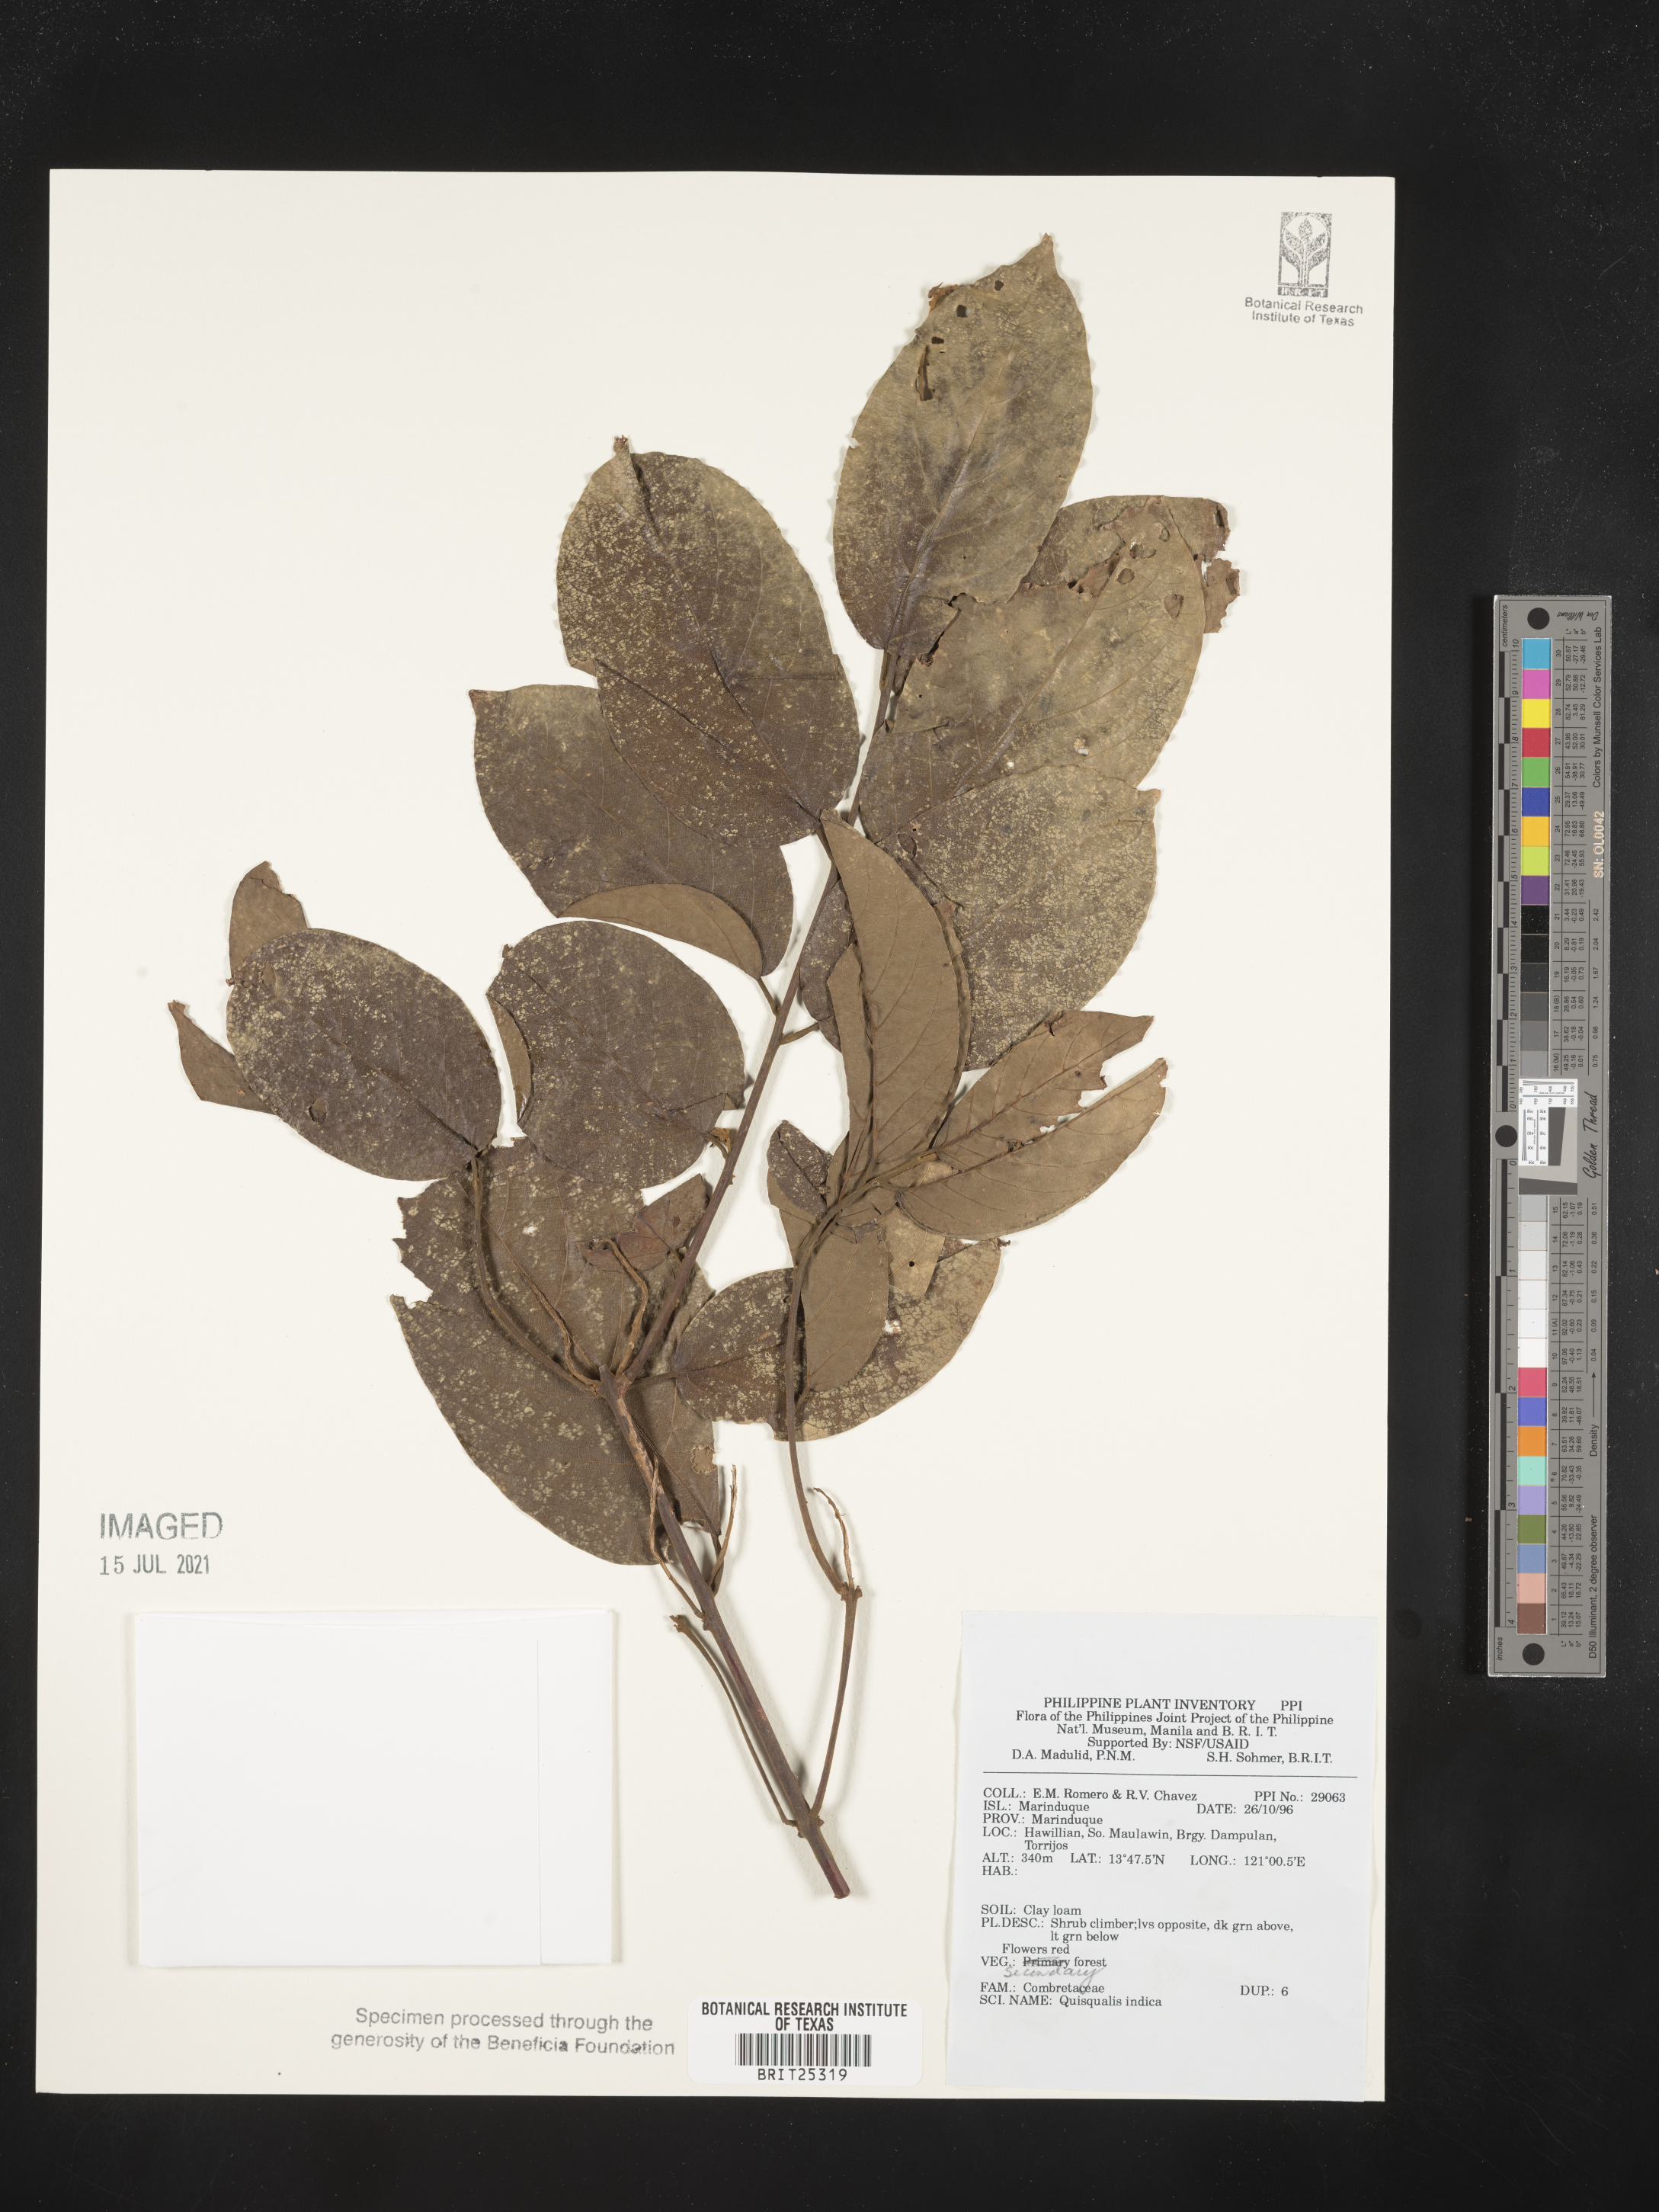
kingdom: Plantae
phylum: Tracheophyta
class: Magnoliopsida
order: Myrtales
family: Combretaceae
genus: Combretum
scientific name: Combretum indicum
